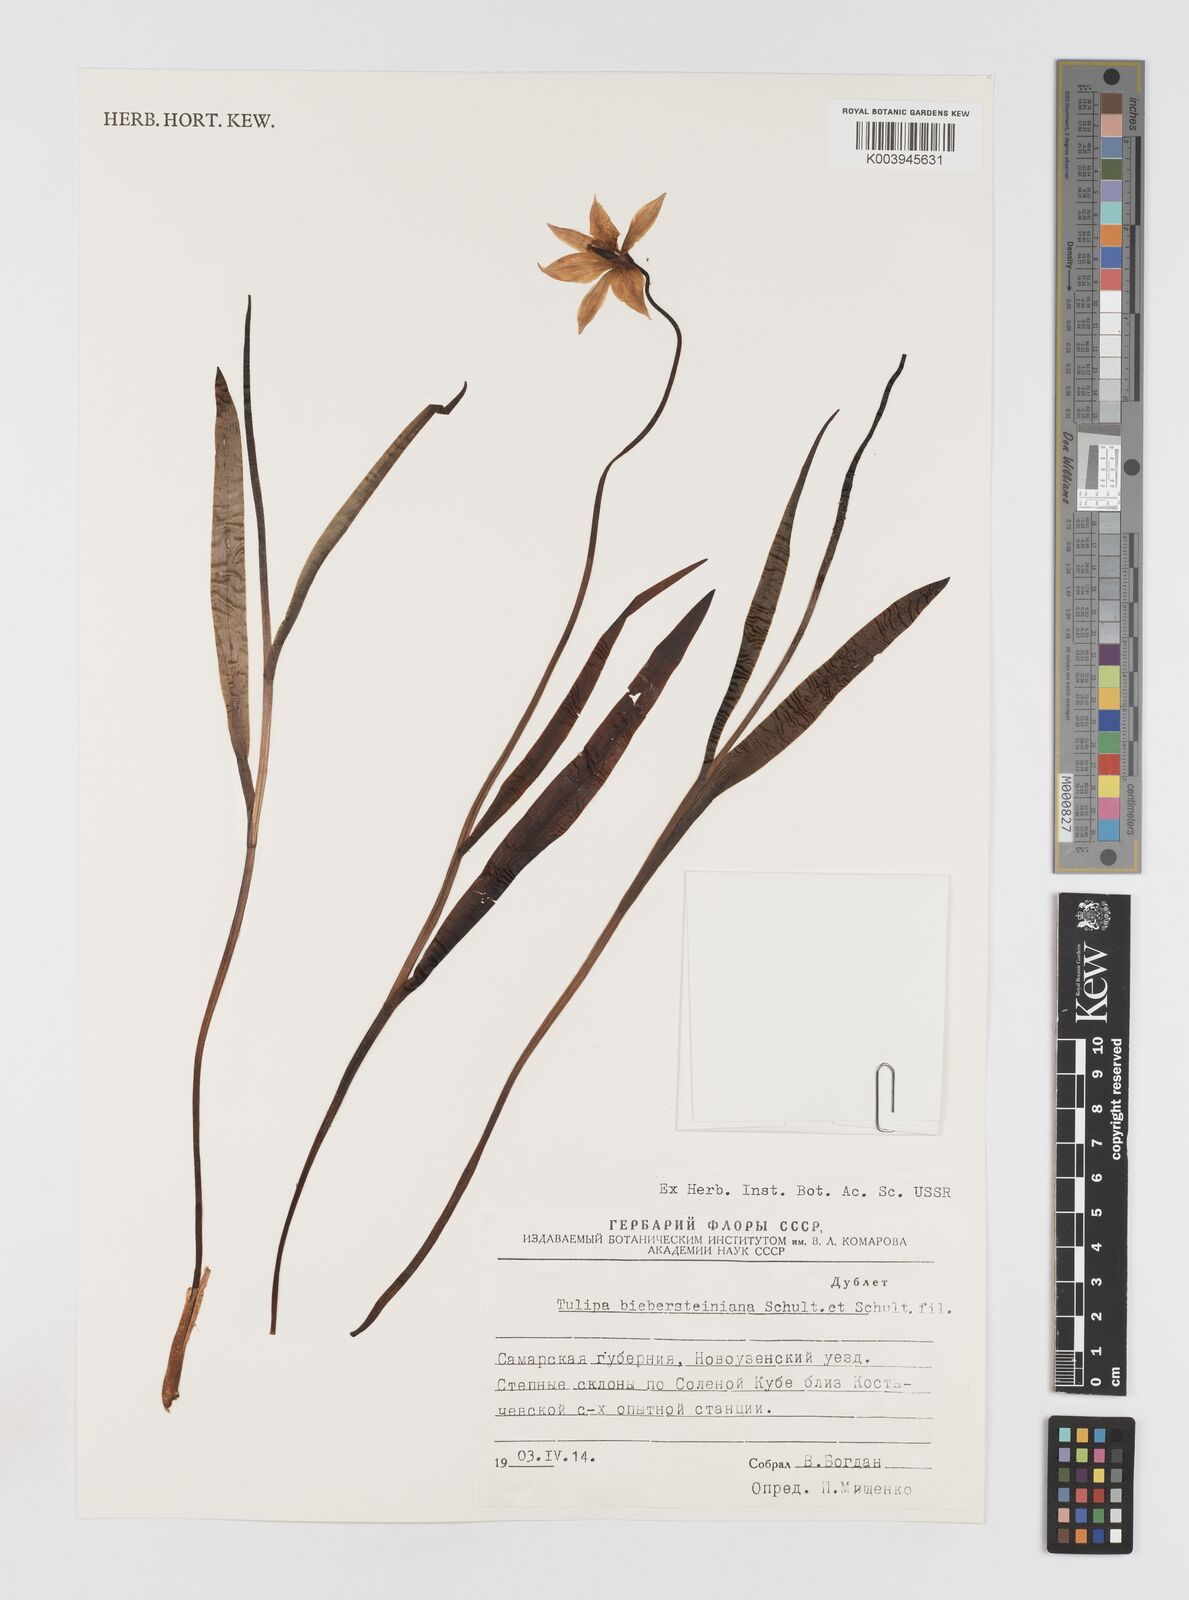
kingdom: Plantae
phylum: Tracheophyta
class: Liliopsida
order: Liliales
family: Liliaceae
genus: Tulipa
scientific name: Tulipa sylvestris
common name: Wild tulip
